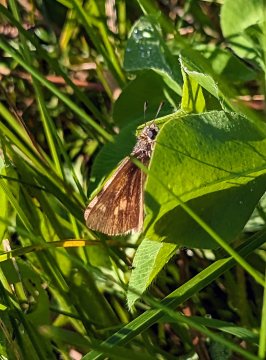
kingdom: Animalia
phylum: Arthropoda
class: Insecta
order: Lepidoptera
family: Hesperiidae
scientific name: Hesperiidae
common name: Skippers
